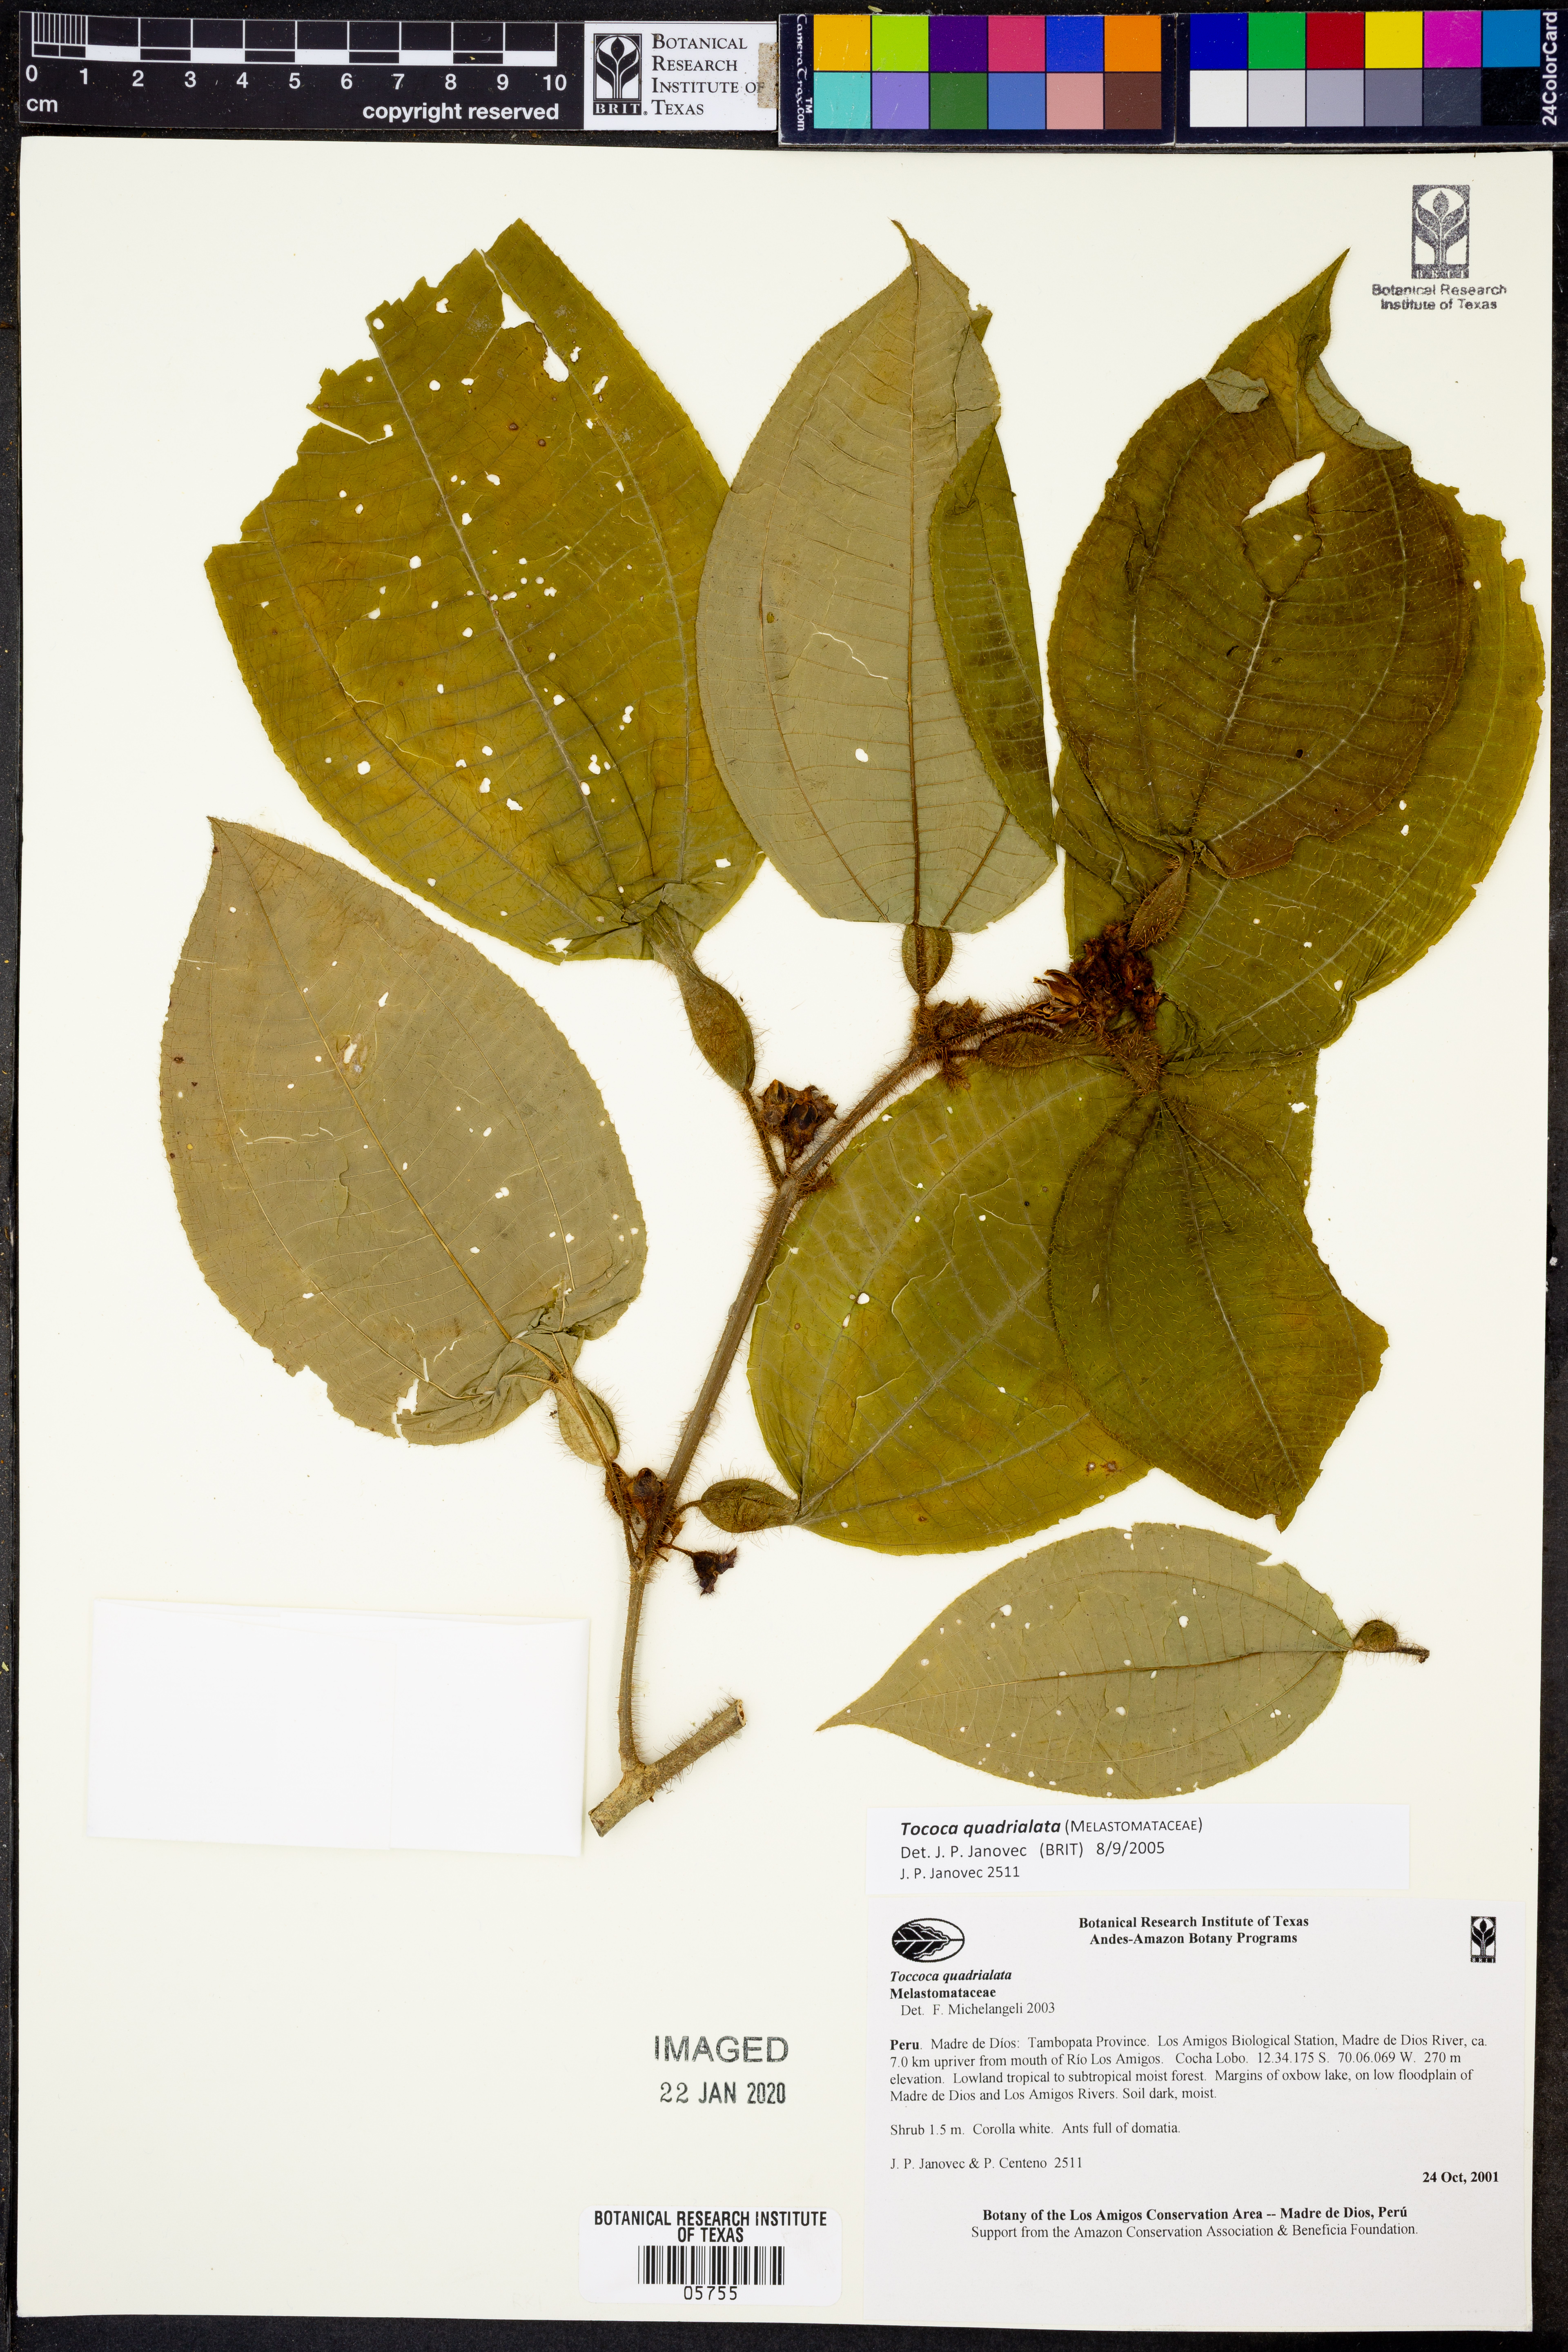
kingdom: Plantae
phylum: Tracheophyta
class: Magnoliopsida
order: Myrtales
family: Melastomataceae
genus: Miconia
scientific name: Miconia microphysca
